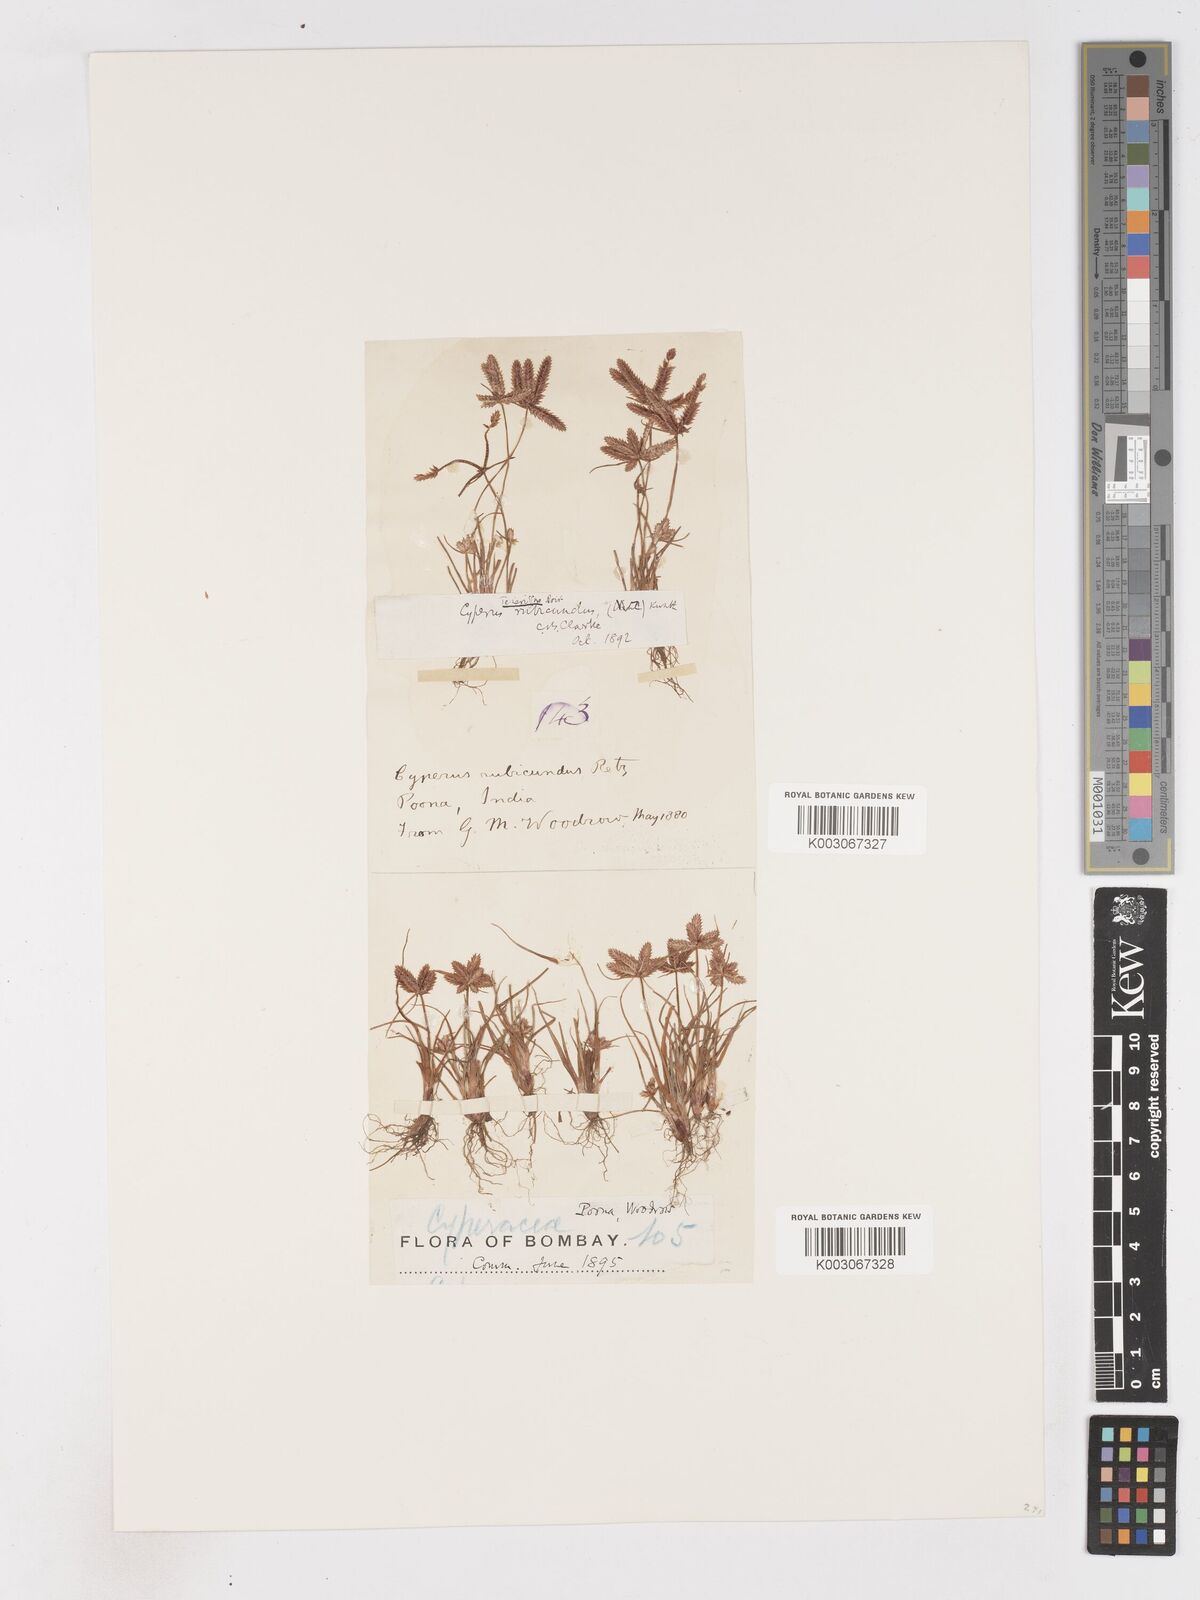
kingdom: Plantae
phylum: Tracheophyta
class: Liliopsida
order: Poales
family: Cyperaceae
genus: Cyperus
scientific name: Cyperus rubicundus
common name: Coco-grass
